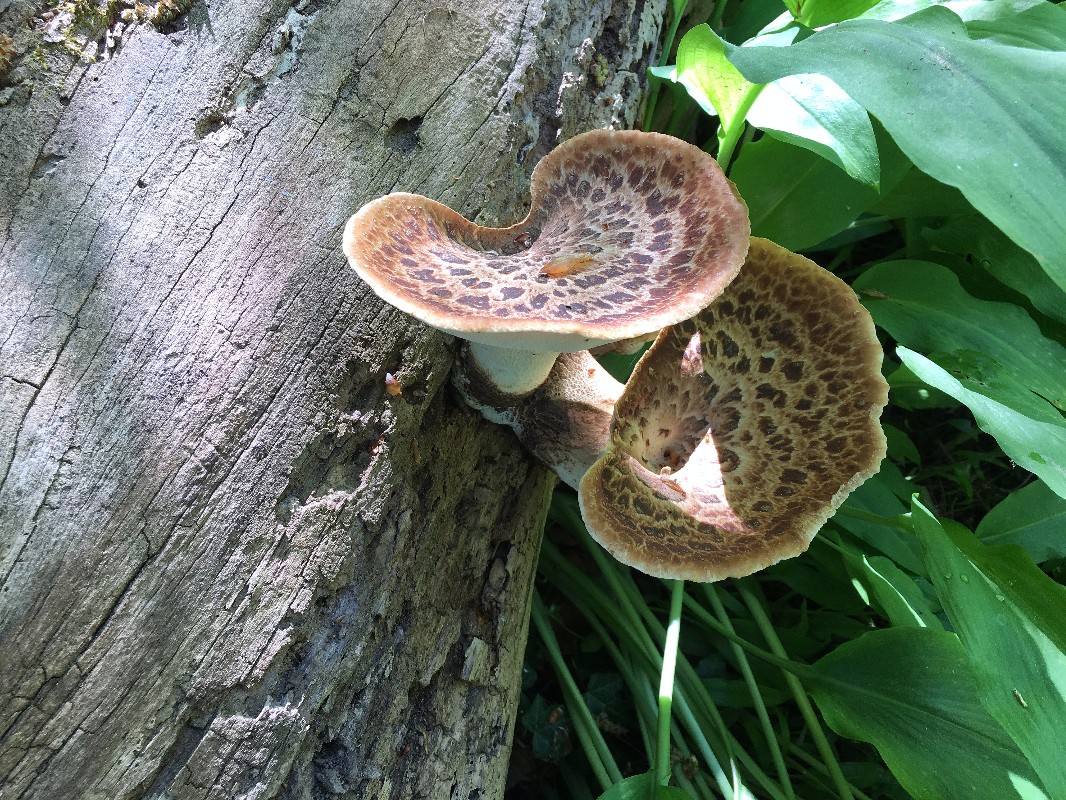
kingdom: Fungi
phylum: Basidiomycota
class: Agaricomycetes
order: Polyporales
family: Polyporaceae
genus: Cerioporus
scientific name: Cerioporus squamosus
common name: skællet stilkporesvamp
